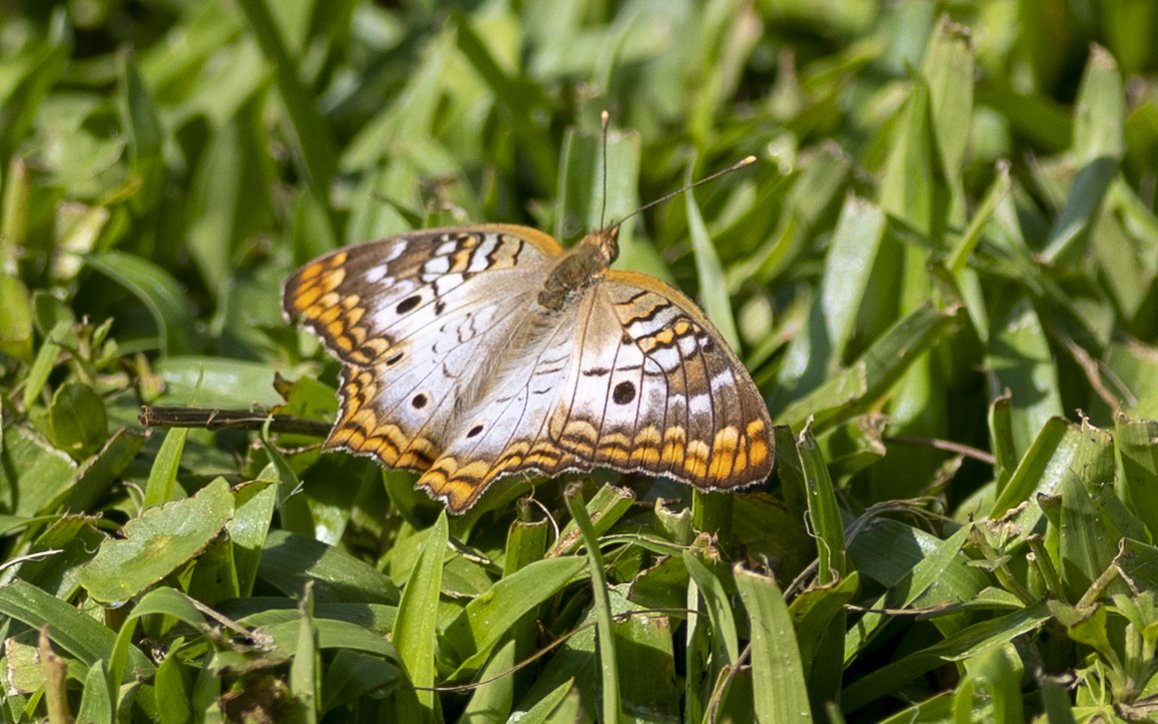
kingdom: Animalia
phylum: Arthropoda
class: Insecta
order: Lepidoptera
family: Nymphalidae
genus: Anartia
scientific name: Anartia jatrophae
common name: White Peacock
